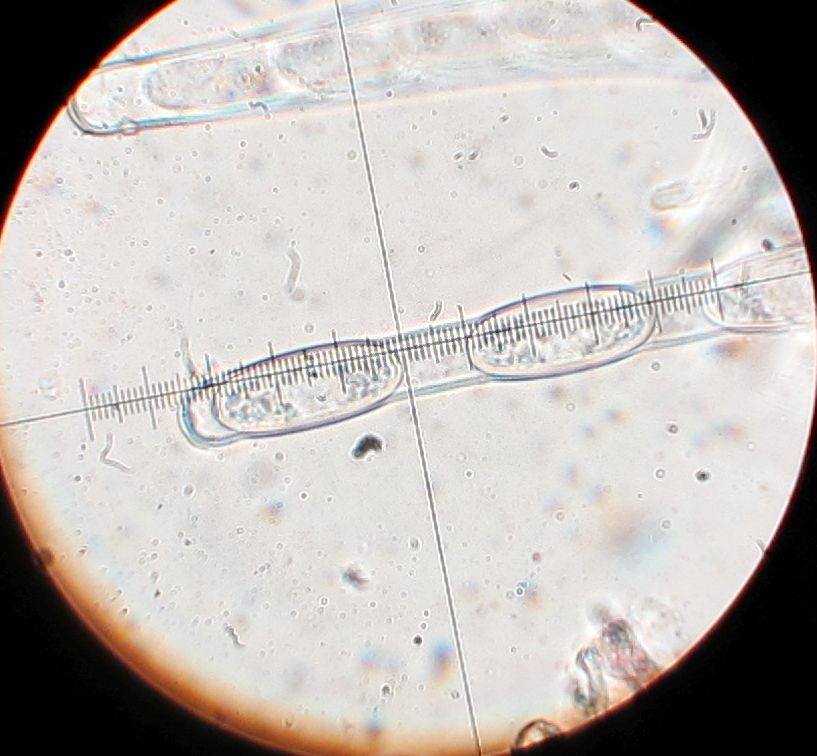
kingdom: Fungi
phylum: Ascomycota
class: Pezizomycetes
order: Pezizales
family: Sarcoscyphaceae
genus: Sarcoscypha
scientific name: Sarcoscypha coccinea
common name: skarlagen-pragtbæger
